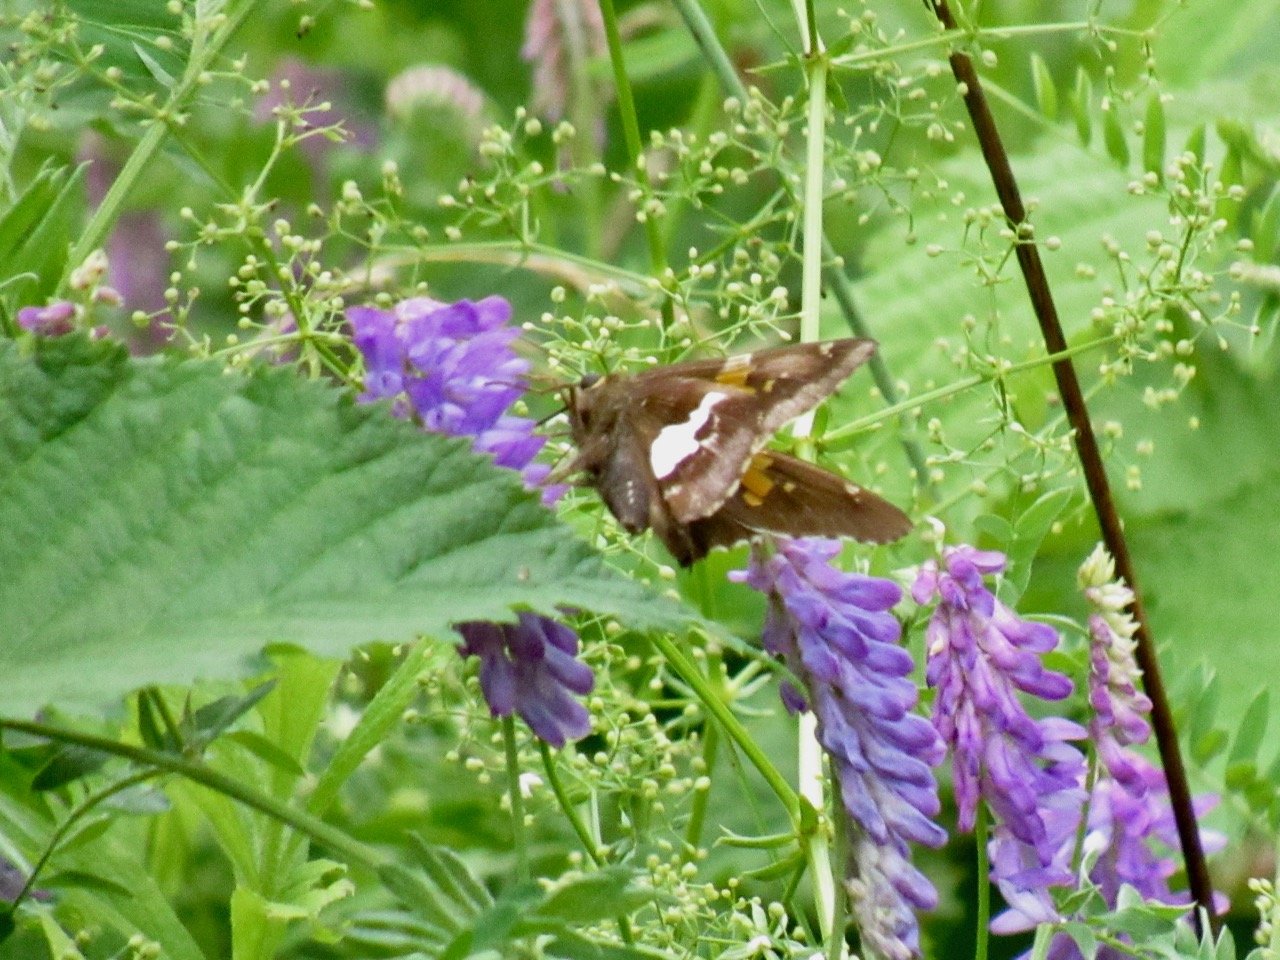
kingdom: Animalia
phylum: Arthropoda
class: Insecta
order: Lepidoptera
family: Hesperiidae
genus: Epargyreus
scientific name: Epargyreus clarus
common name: Silver-spotted Skipper
